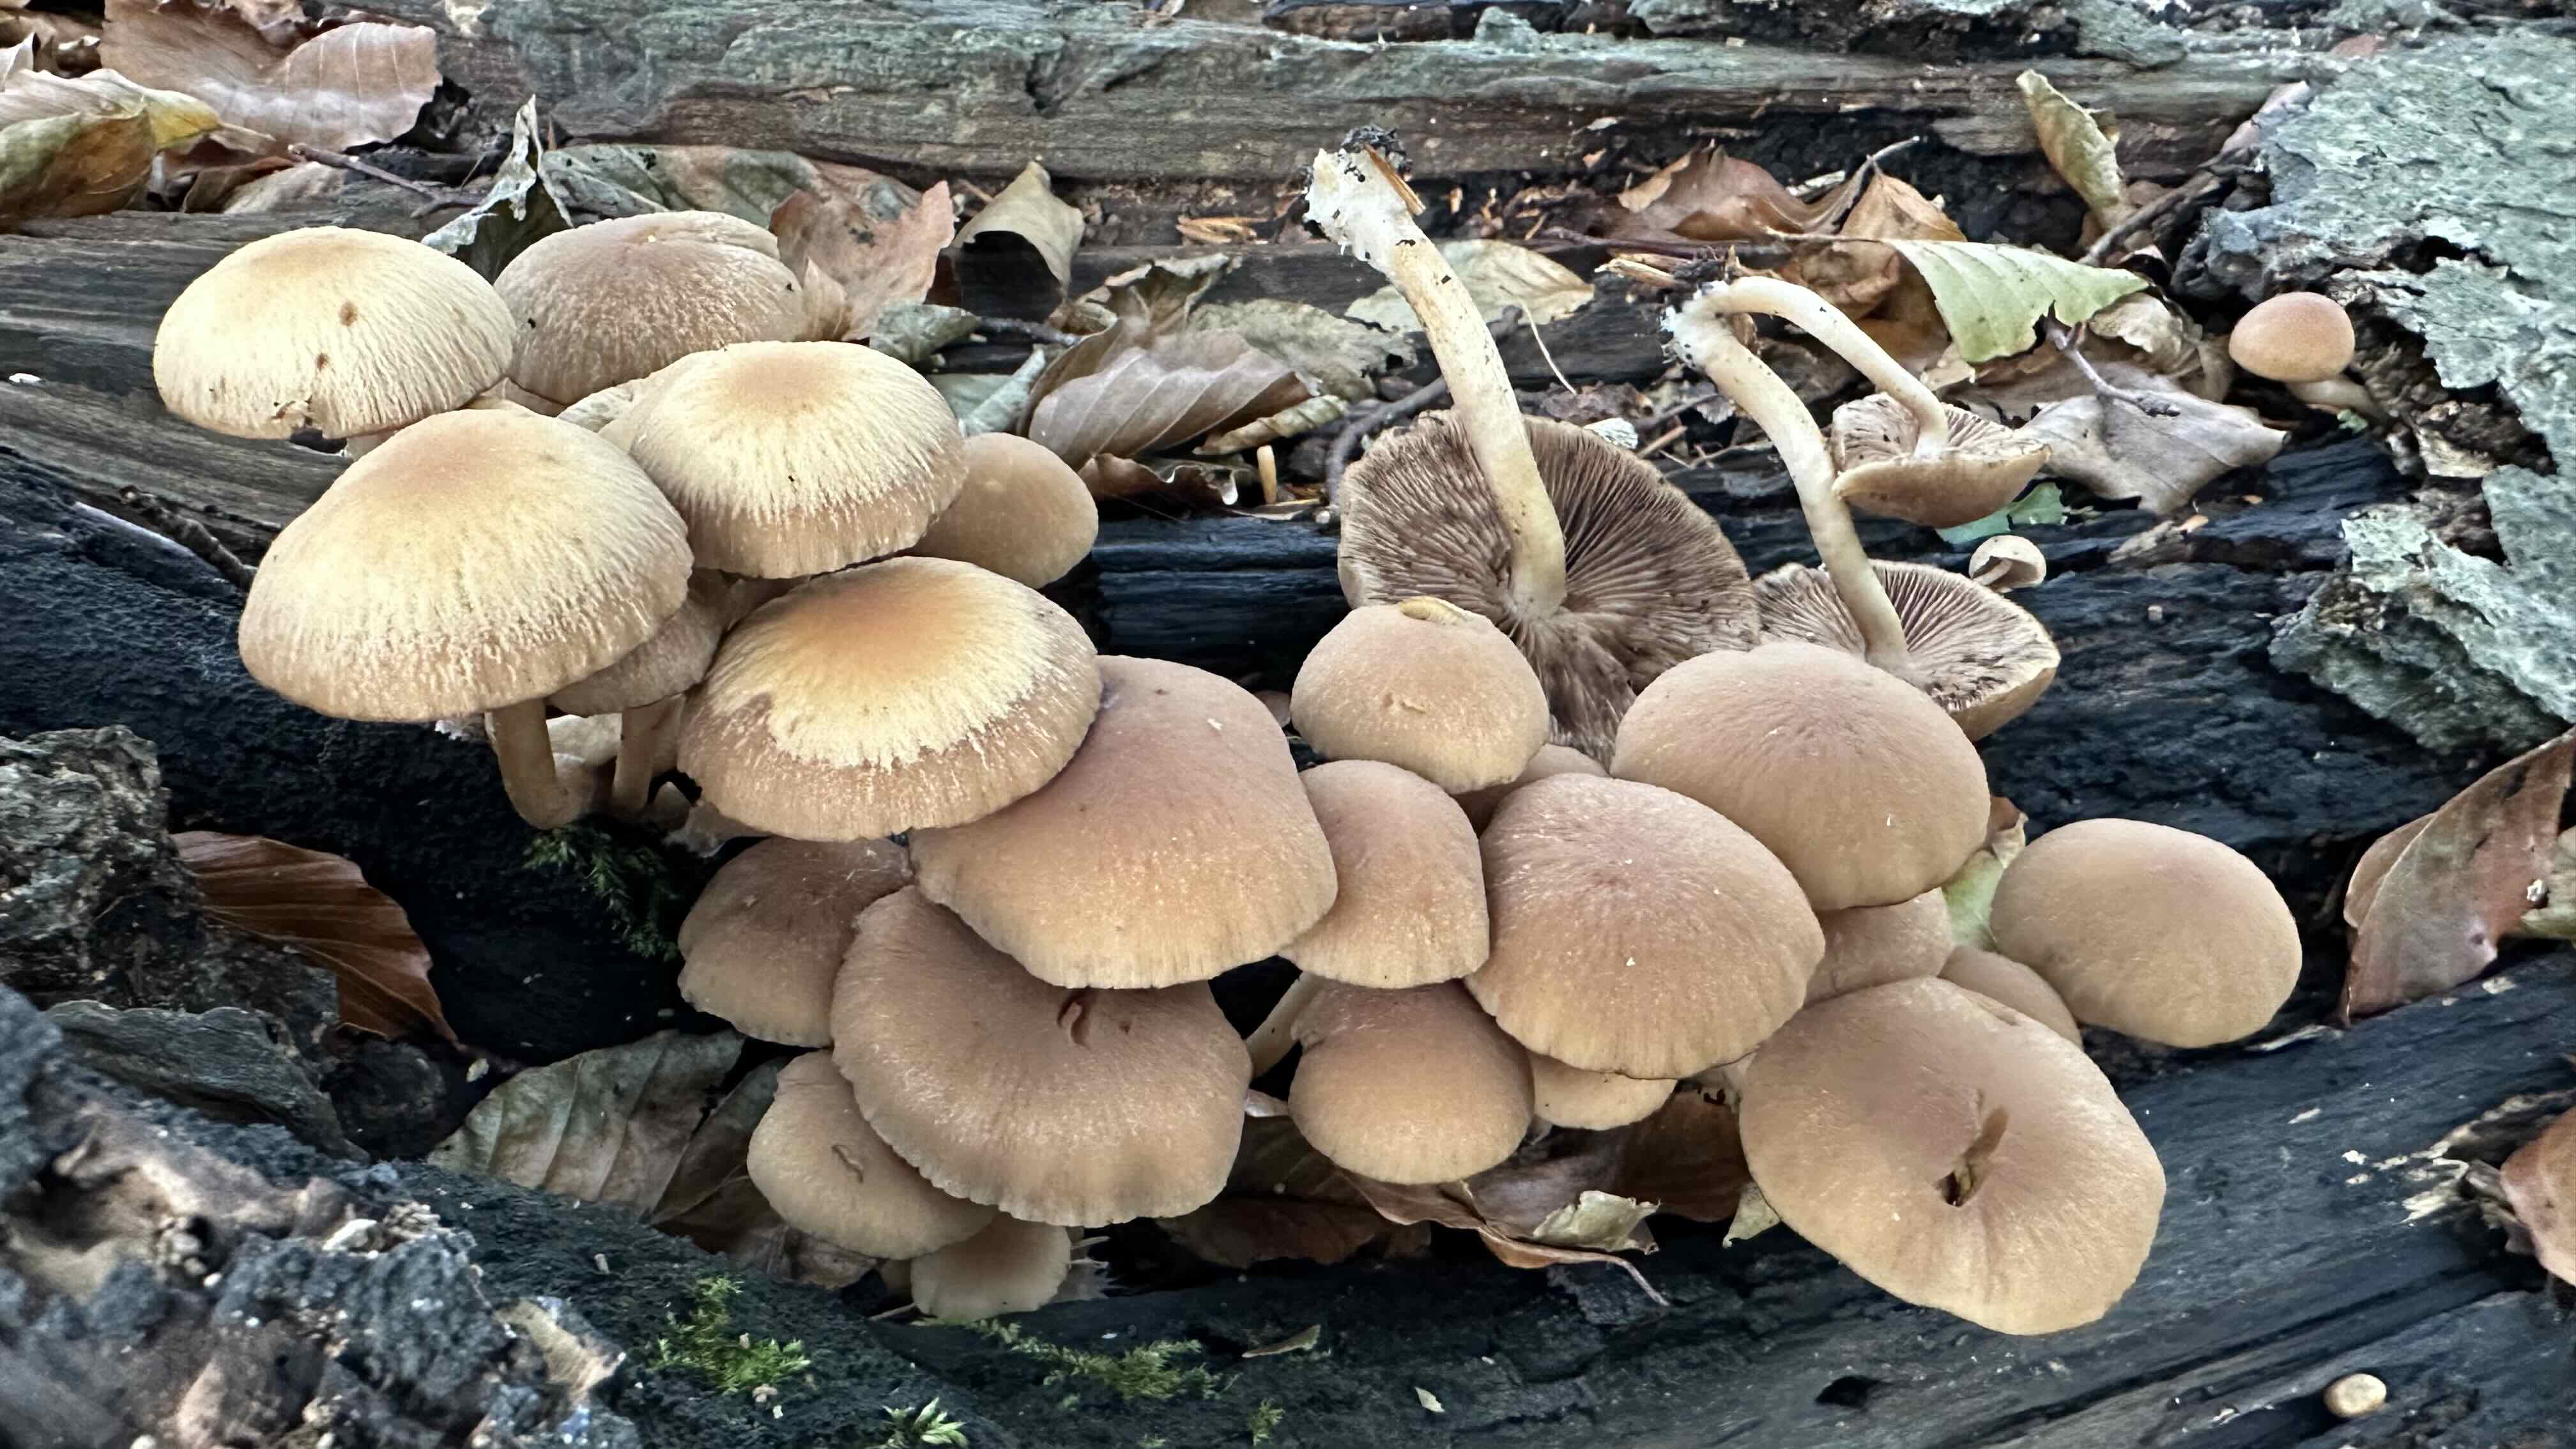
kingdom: Fungi
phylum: Basidiomycota
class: Agaricomycetes
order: Agaricales
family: Psathyrellaceae
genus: Psathyrella
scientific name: Psathyrella piluliformis
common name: lysstokket mørkhat
